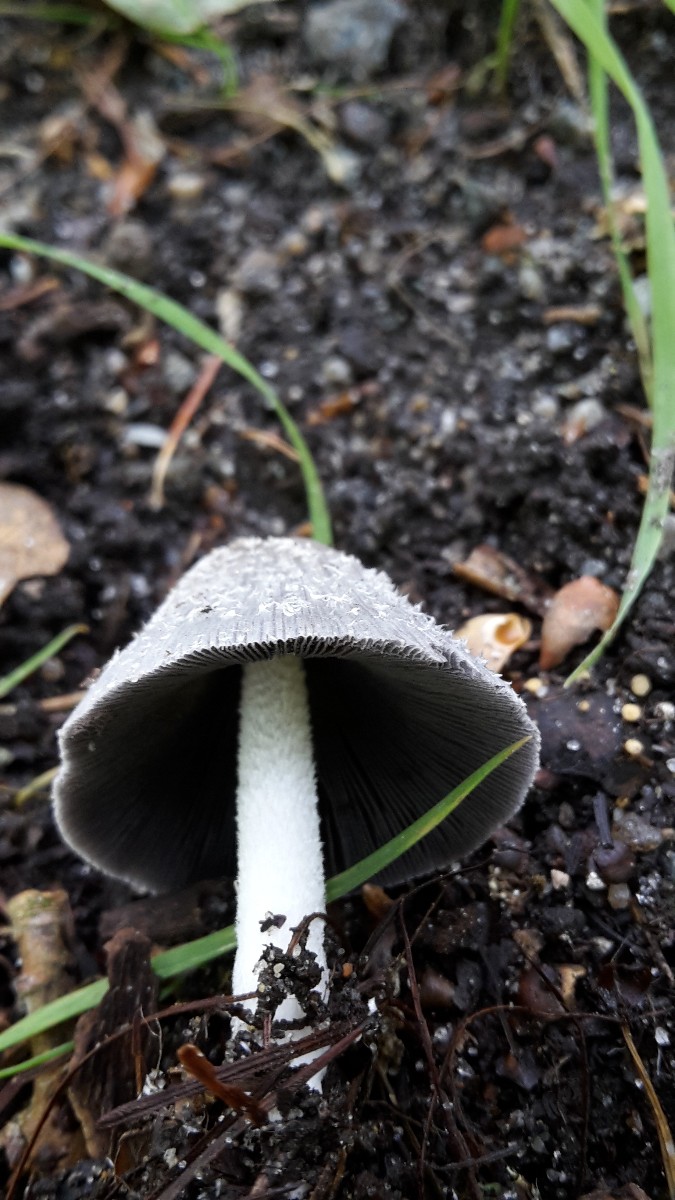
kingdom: Fungi
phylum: Basidiomycota
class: Agaricomycetes
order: Agaricales
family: Psathyrellaceae
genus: Coprinopsis
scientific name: Coprinopsis lagopus
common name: dunstokket blækhat
